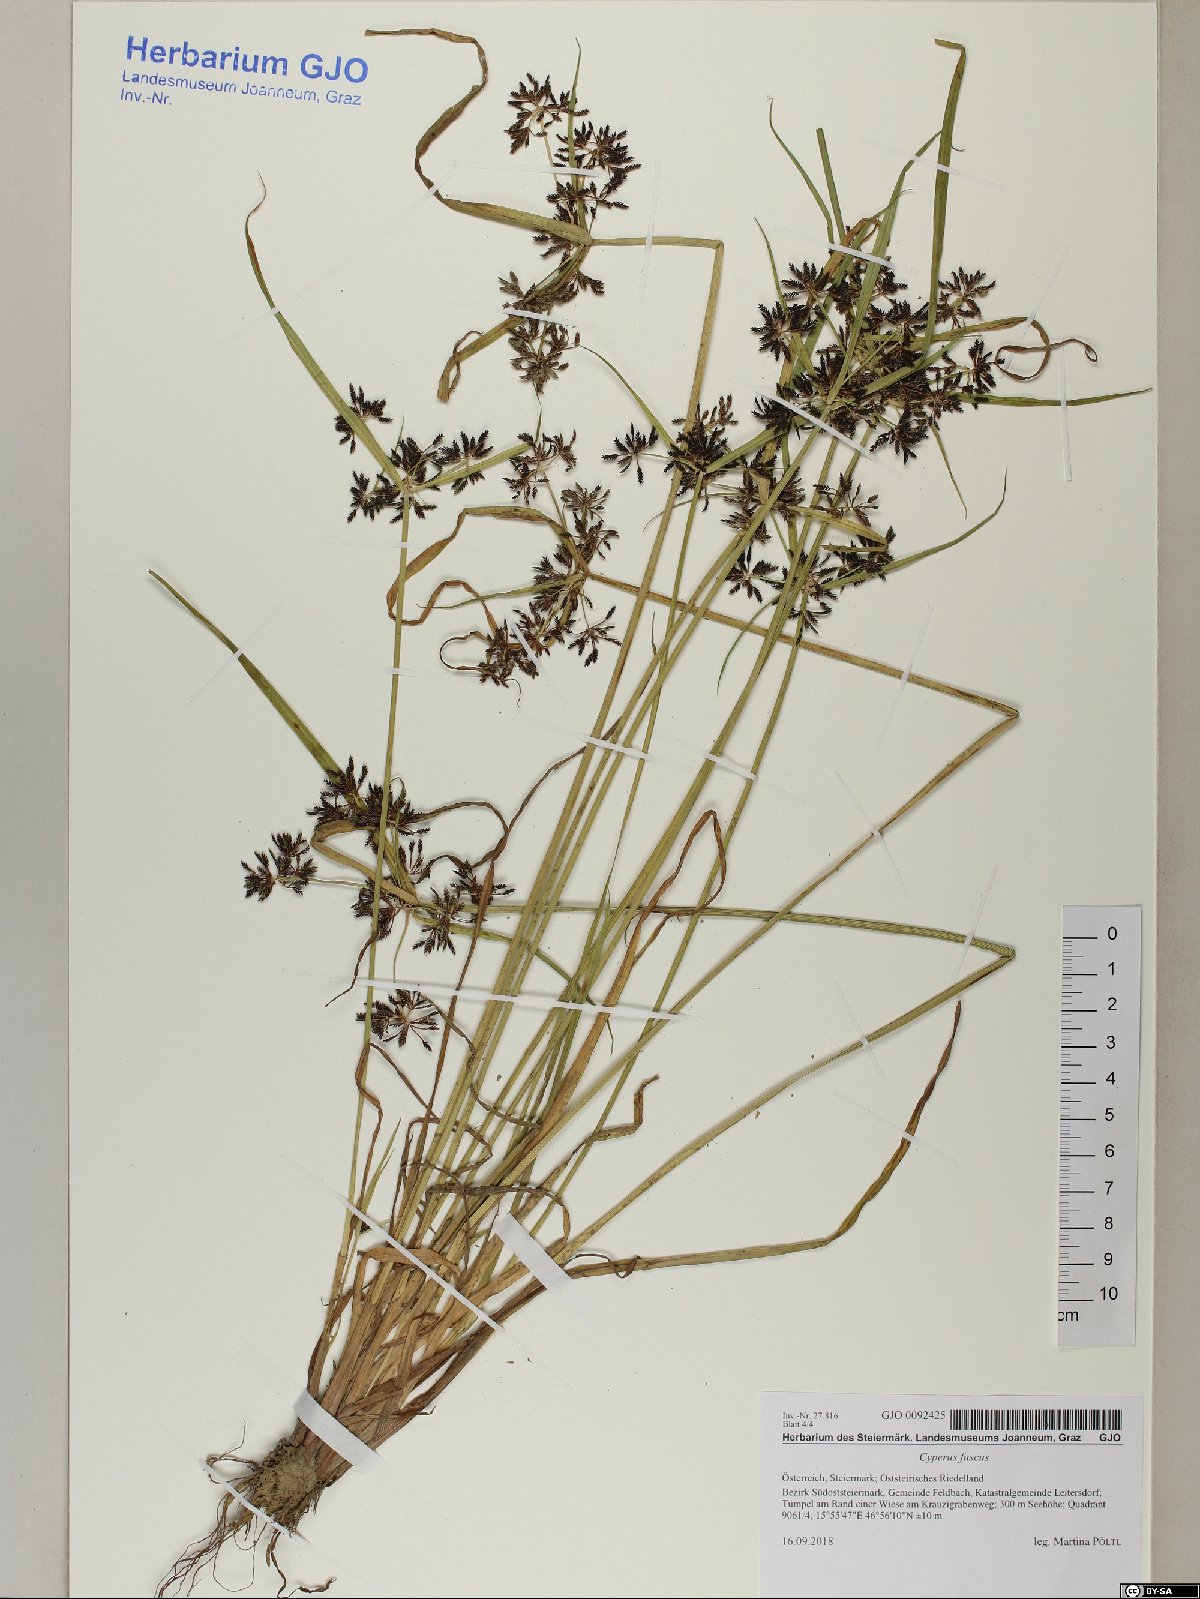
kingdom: Plantae
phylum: Tracheophyta
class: Liliopsida
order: Poales
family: Cyperaceae
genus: Cyperus
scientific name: Cyperus fuscus
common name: Brown galingale
